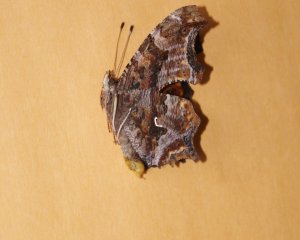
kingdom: Animalia
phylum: Arthropoda
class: Insecta
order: Lepidoptera
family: Nymphalidae
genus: Polygonia
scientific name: Polygonia comma
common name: Eastern Comma
